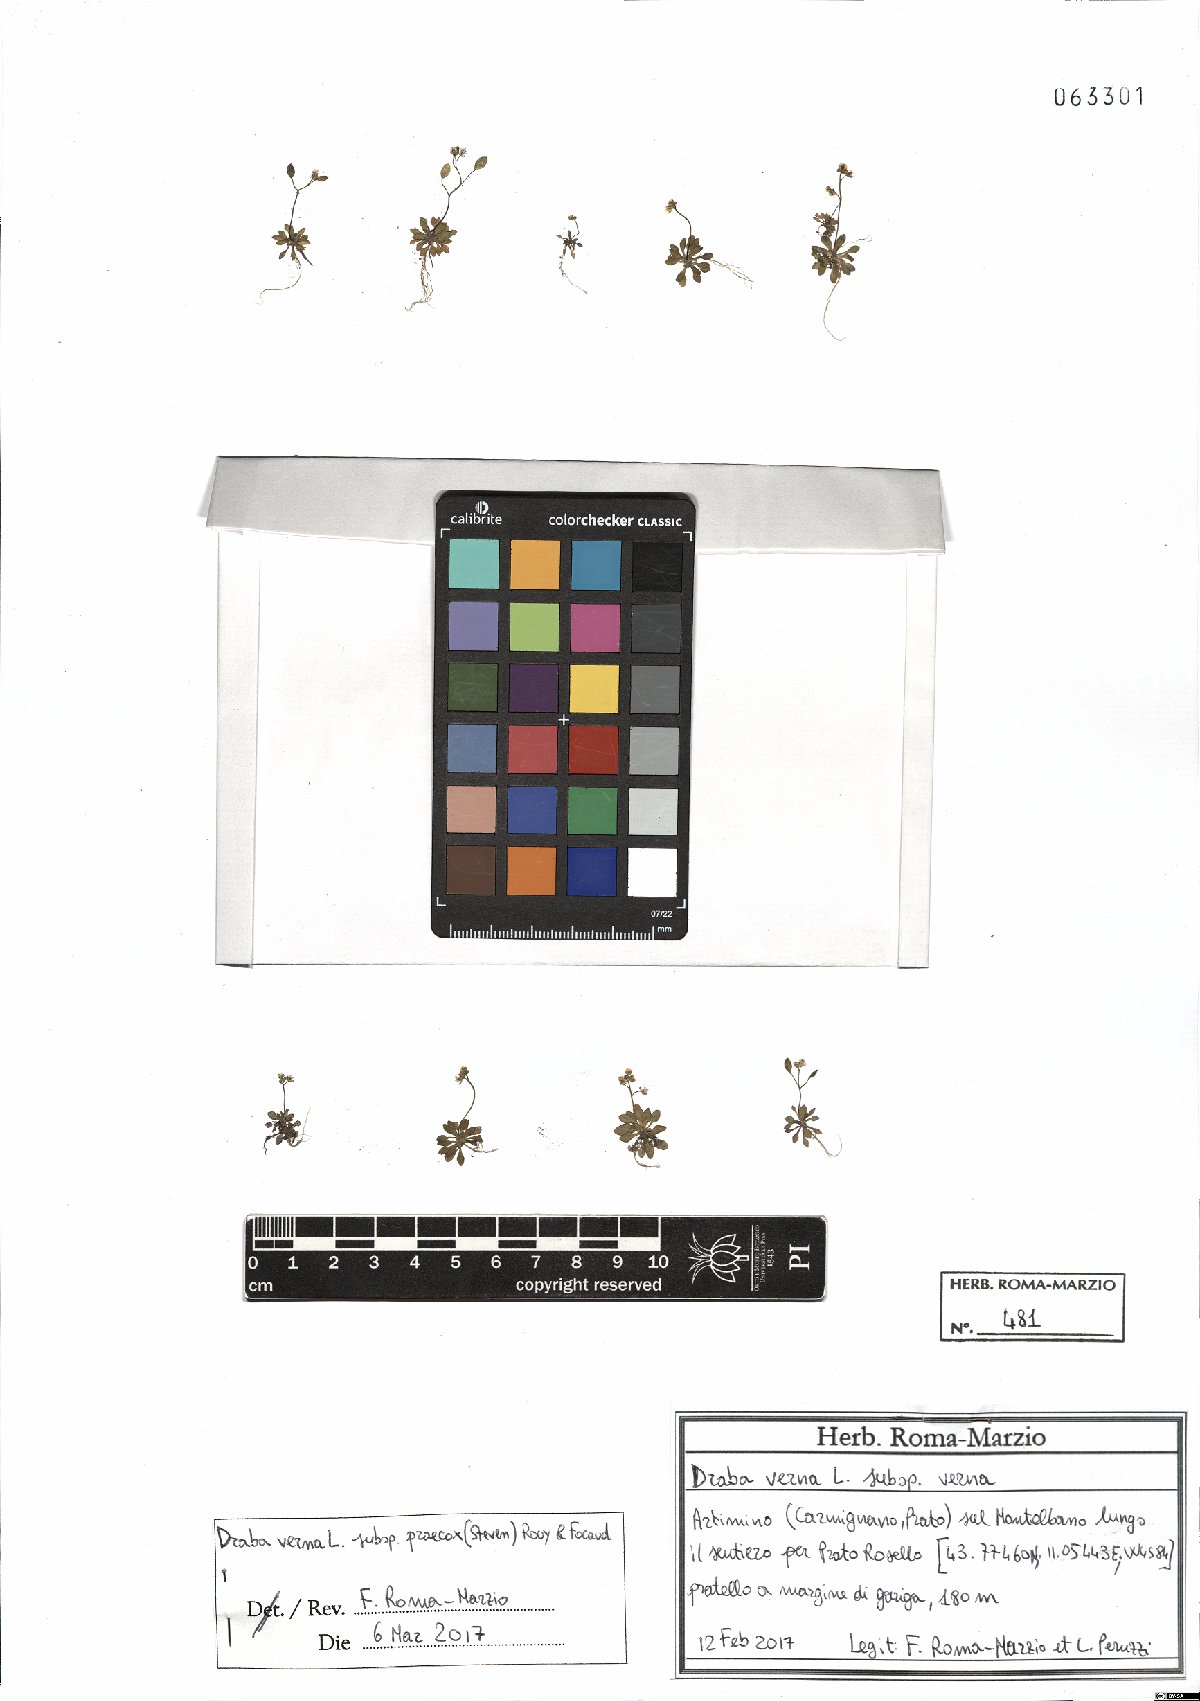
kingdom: Plantae
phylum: Tracheophyta
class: Magnoliopsida
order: Brassicales
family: Brassicaceae
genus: Draba
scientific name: Draba verna
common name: Spring draba
